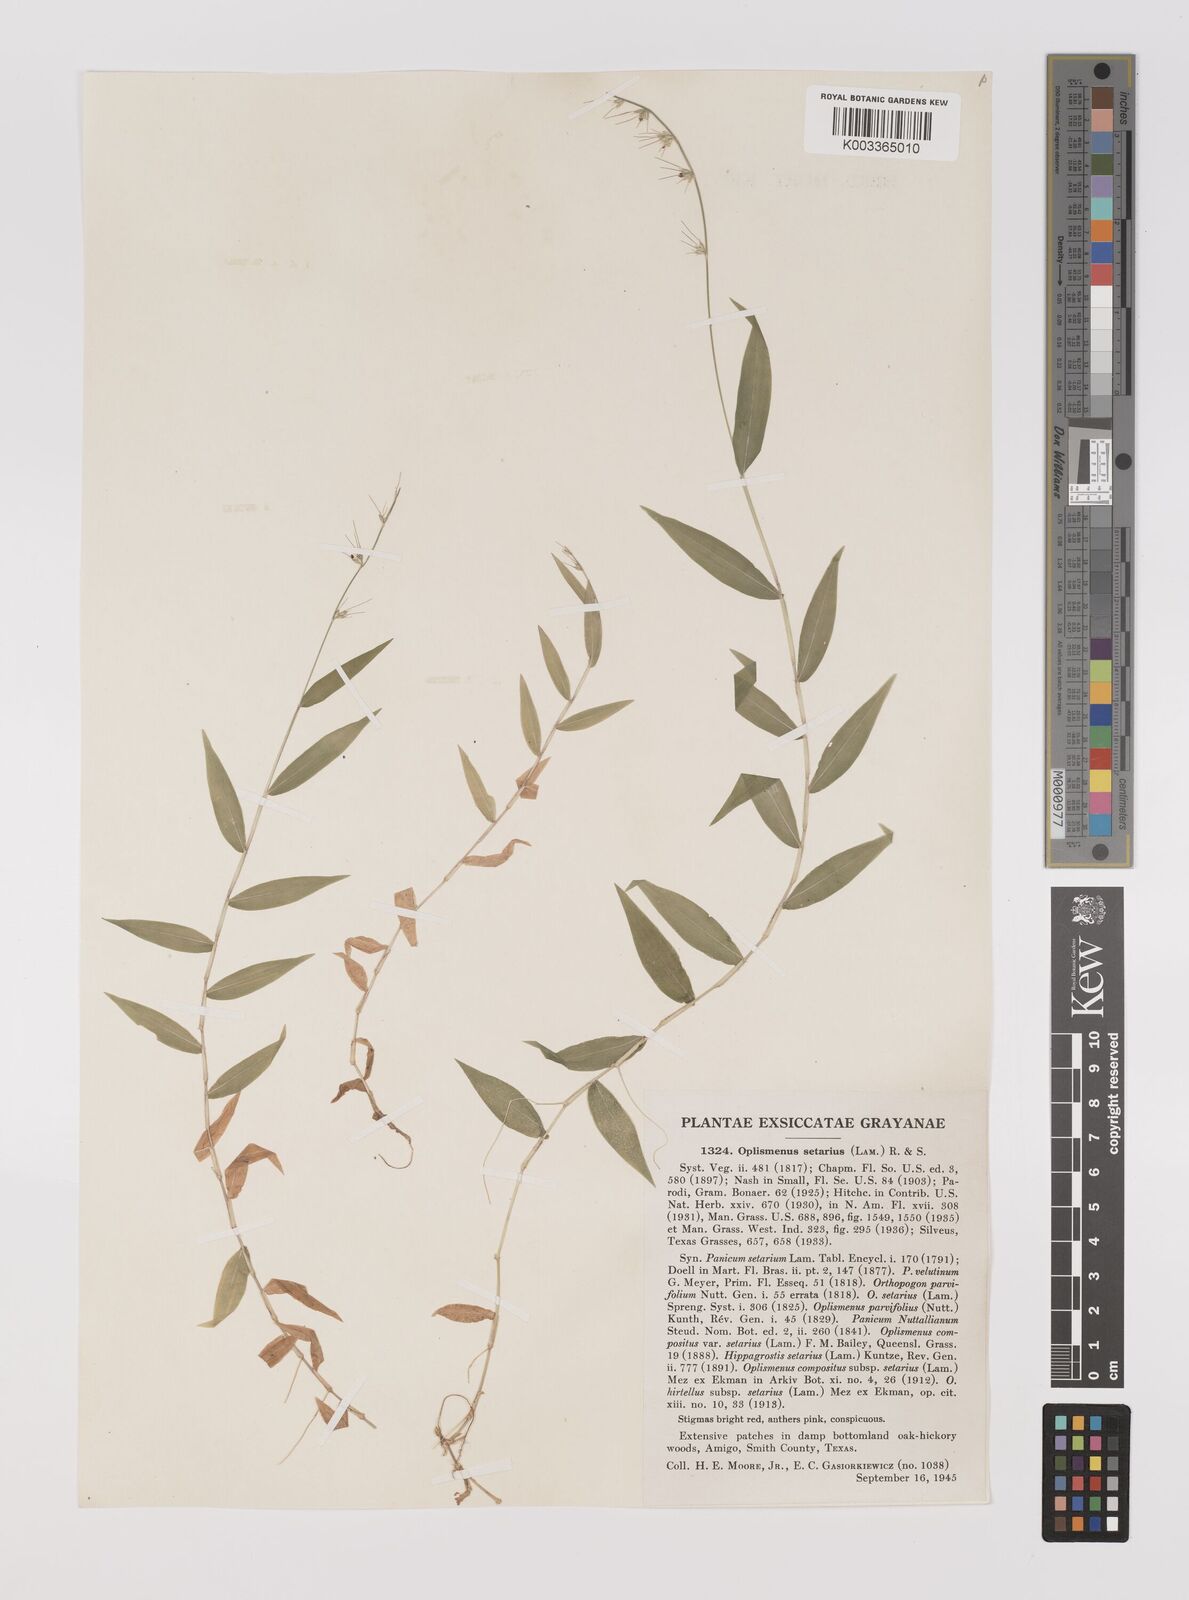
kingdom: Plantae
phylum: Tracheophyta
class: Liliopsida
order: Poales
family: Poaceae
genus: Oplismenus
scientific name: Oplismenus undulatifolius
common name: Wavyleaf basketgrass
